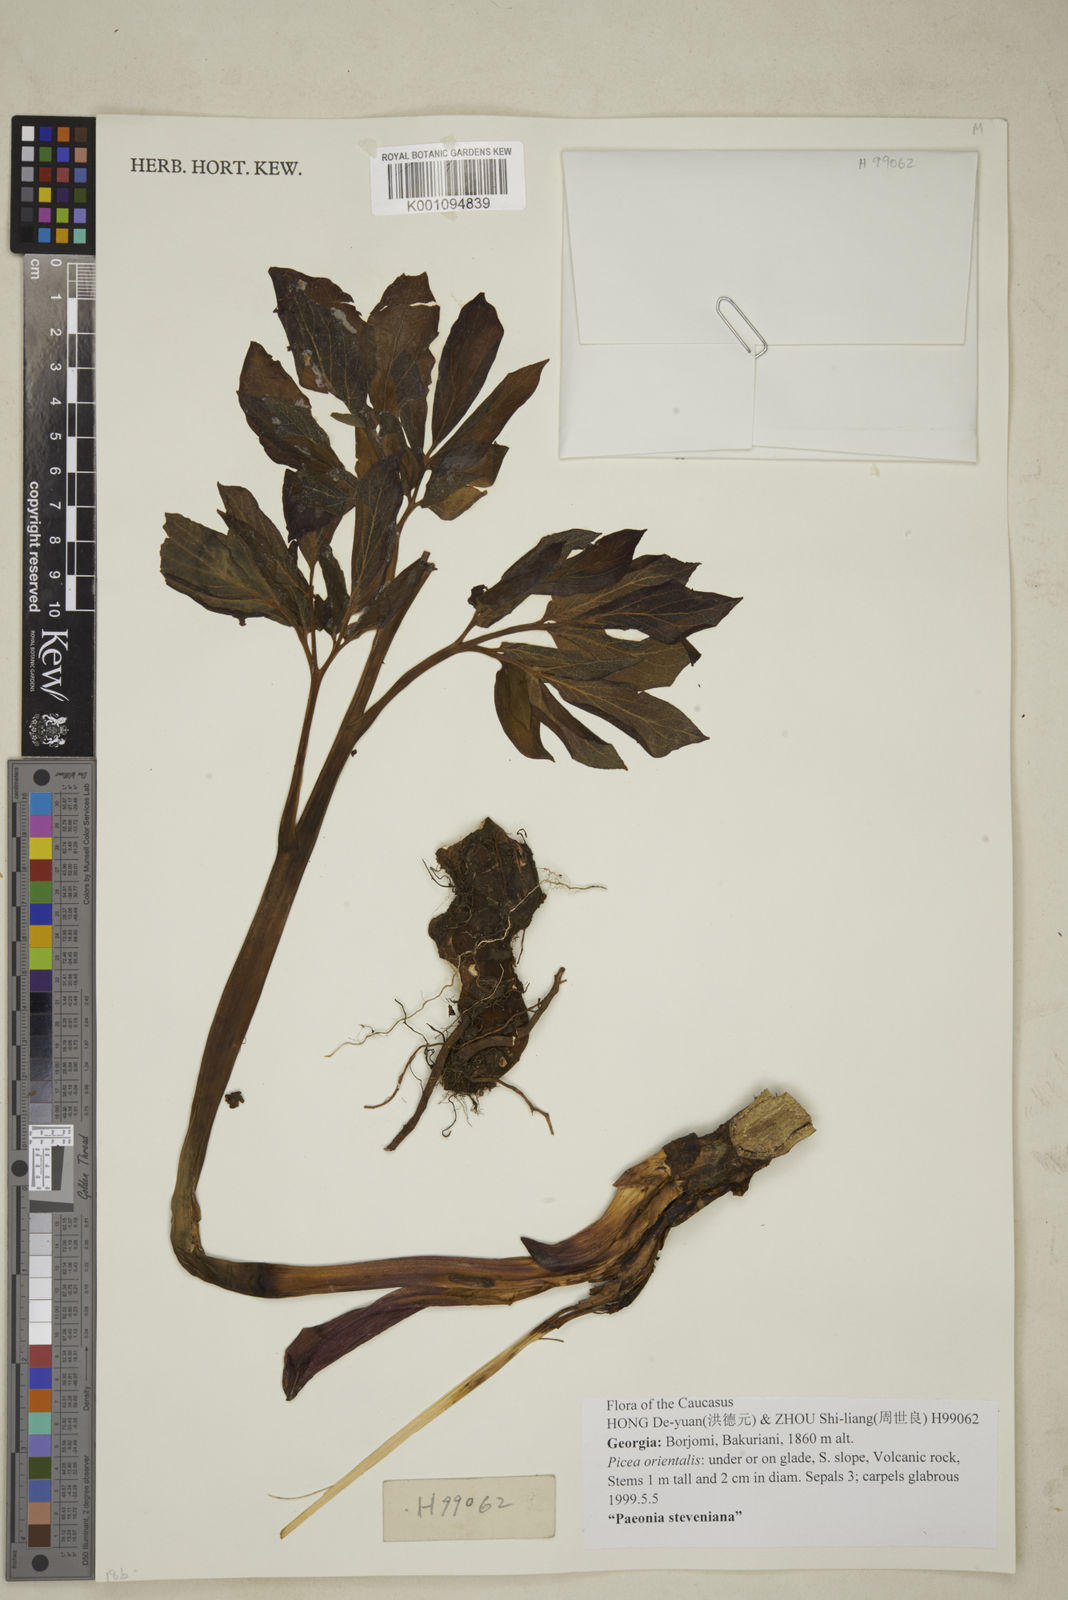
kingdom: Plantae
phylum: Tracheophyta
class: Magnoliopsida
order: Saxifragales
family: Paeoniaceae
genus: Paeonia
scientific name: Paeonia wittmanniana
